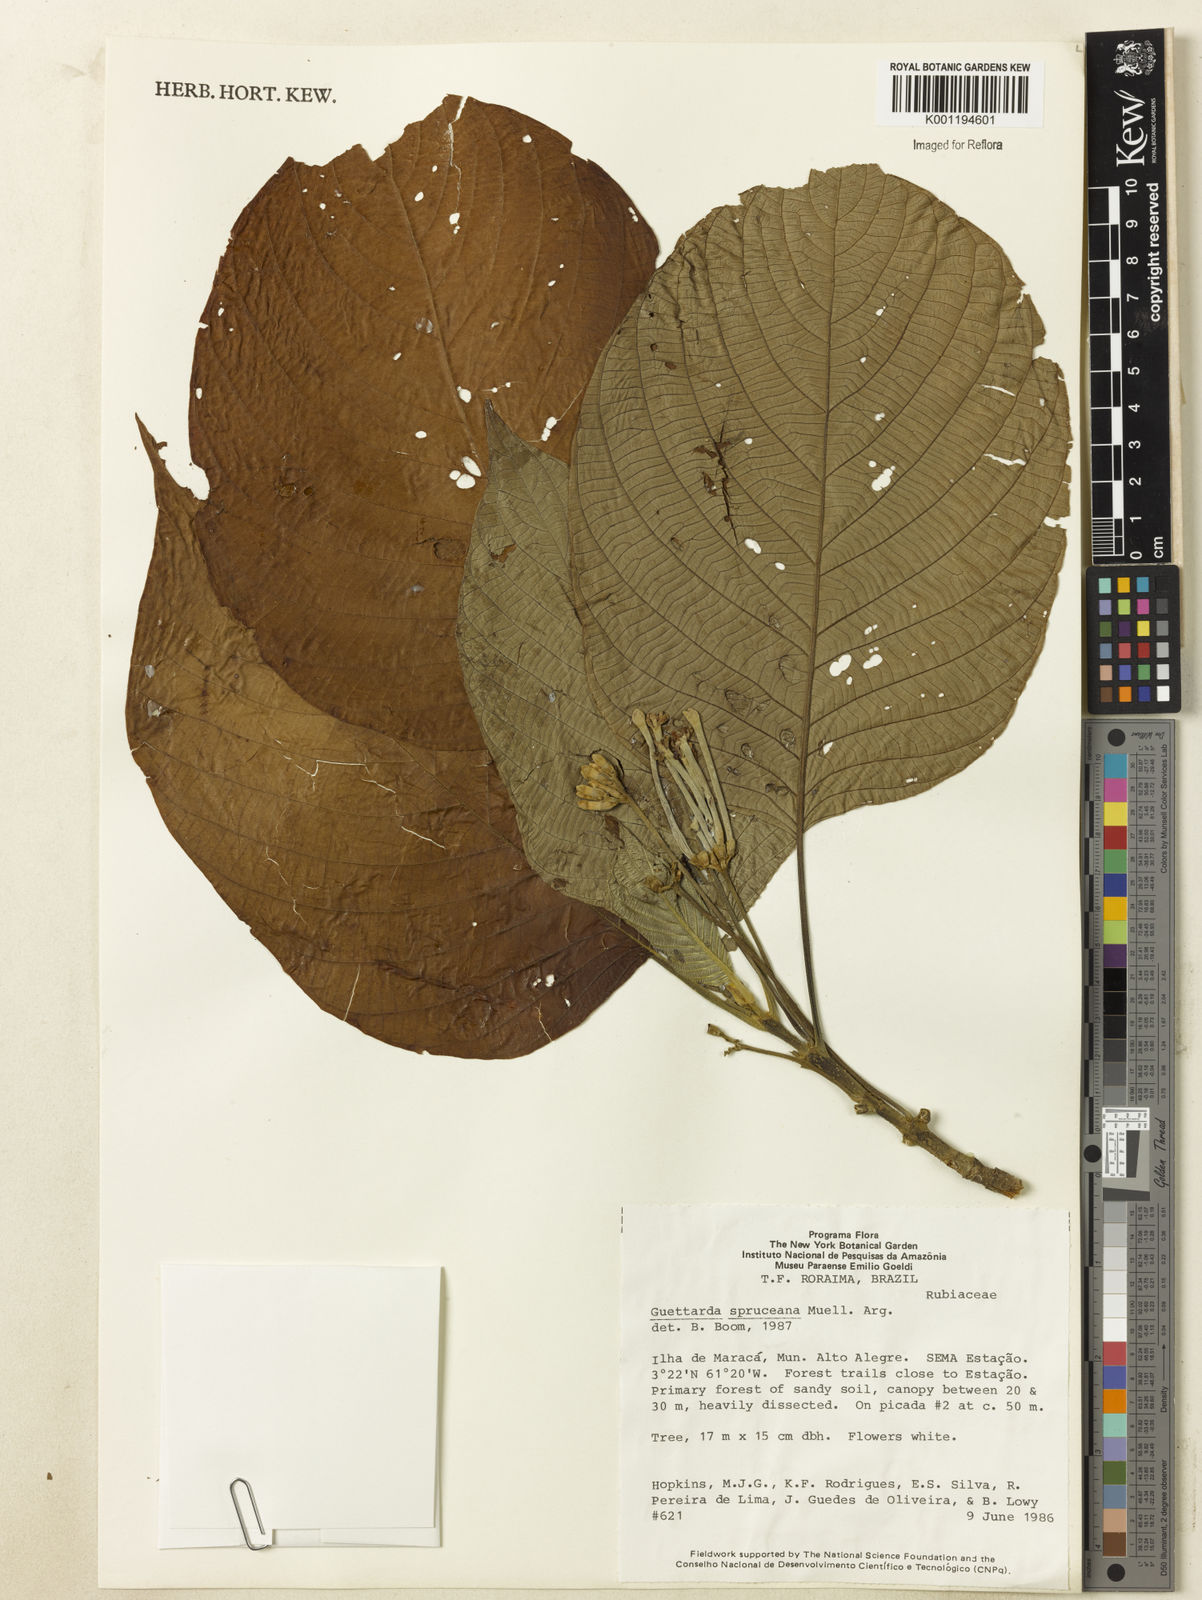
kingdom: Plantae
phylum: Tracheophyta
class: Magnoliopsida
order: Gentianales
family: Rubiaceae
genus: Guettarda
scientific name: Guettarda
